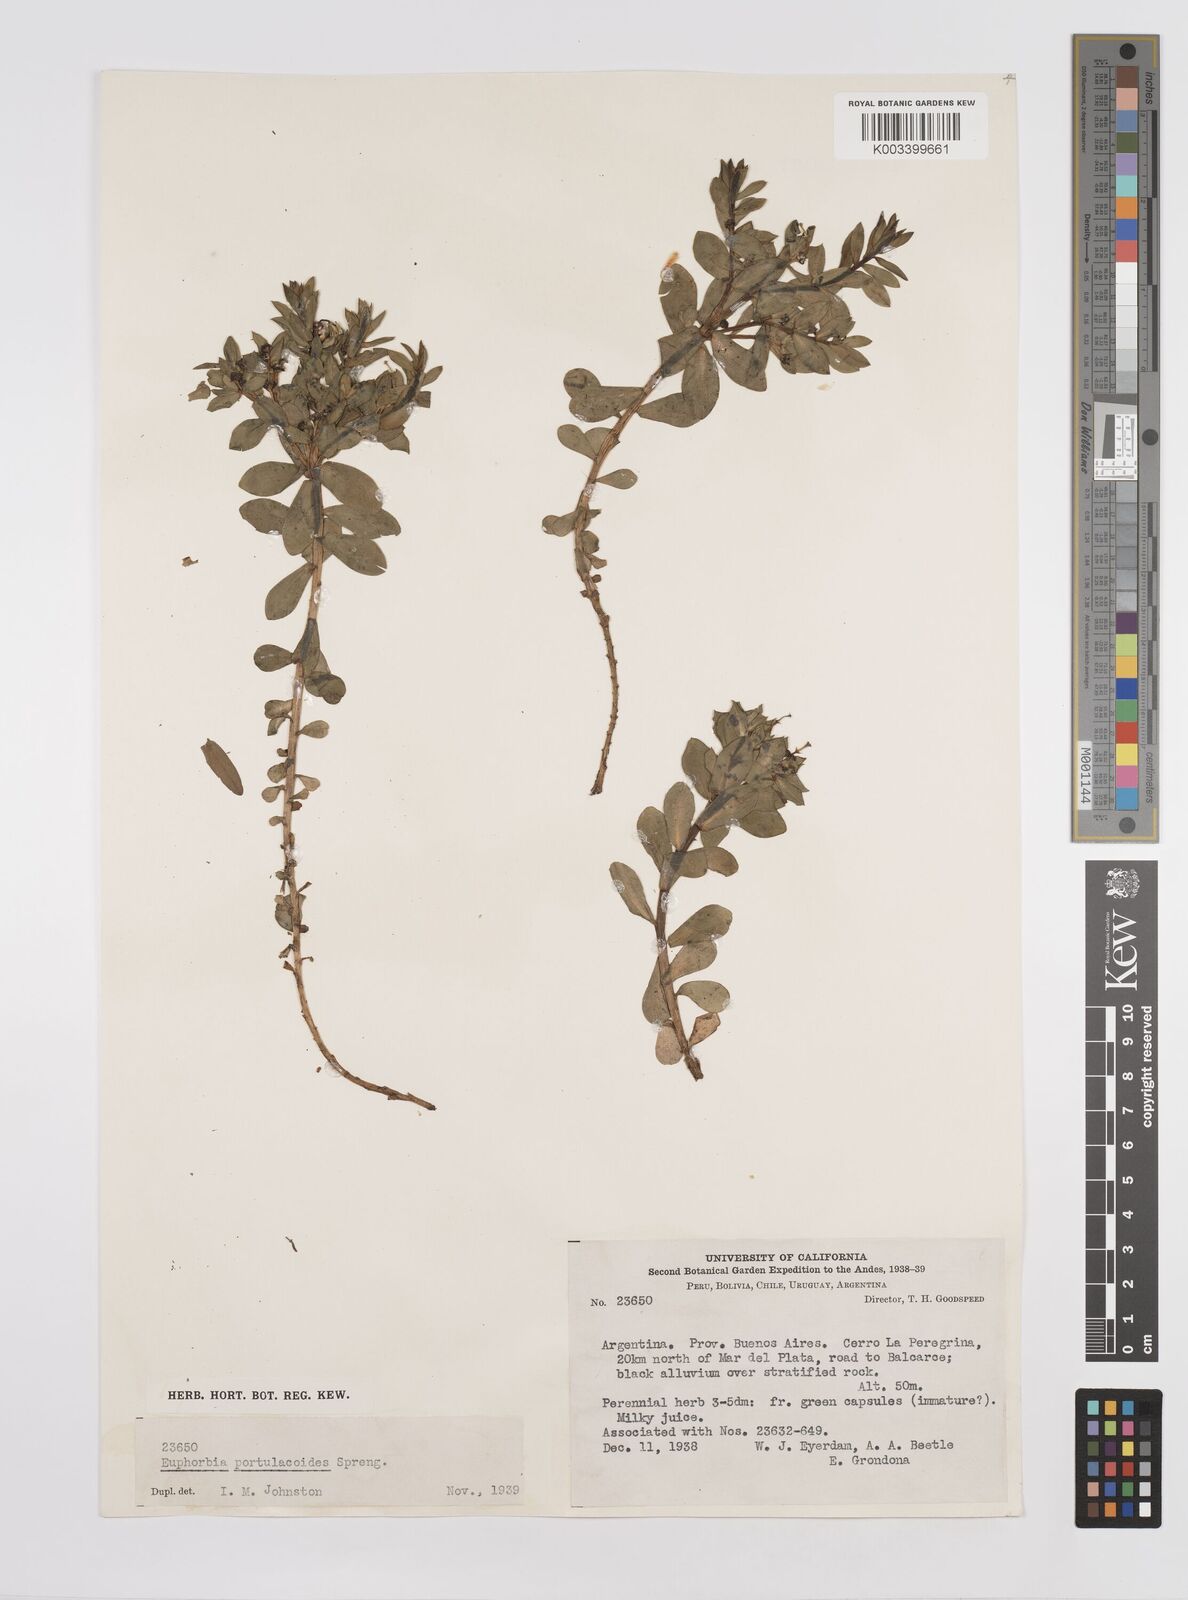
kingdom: Plantae
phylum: Tracheophyta
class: Magnoliopsida
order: Malpighiales
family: Euphorbiaceae
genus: Euphorbia
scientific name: Euphorbia portulacoides
